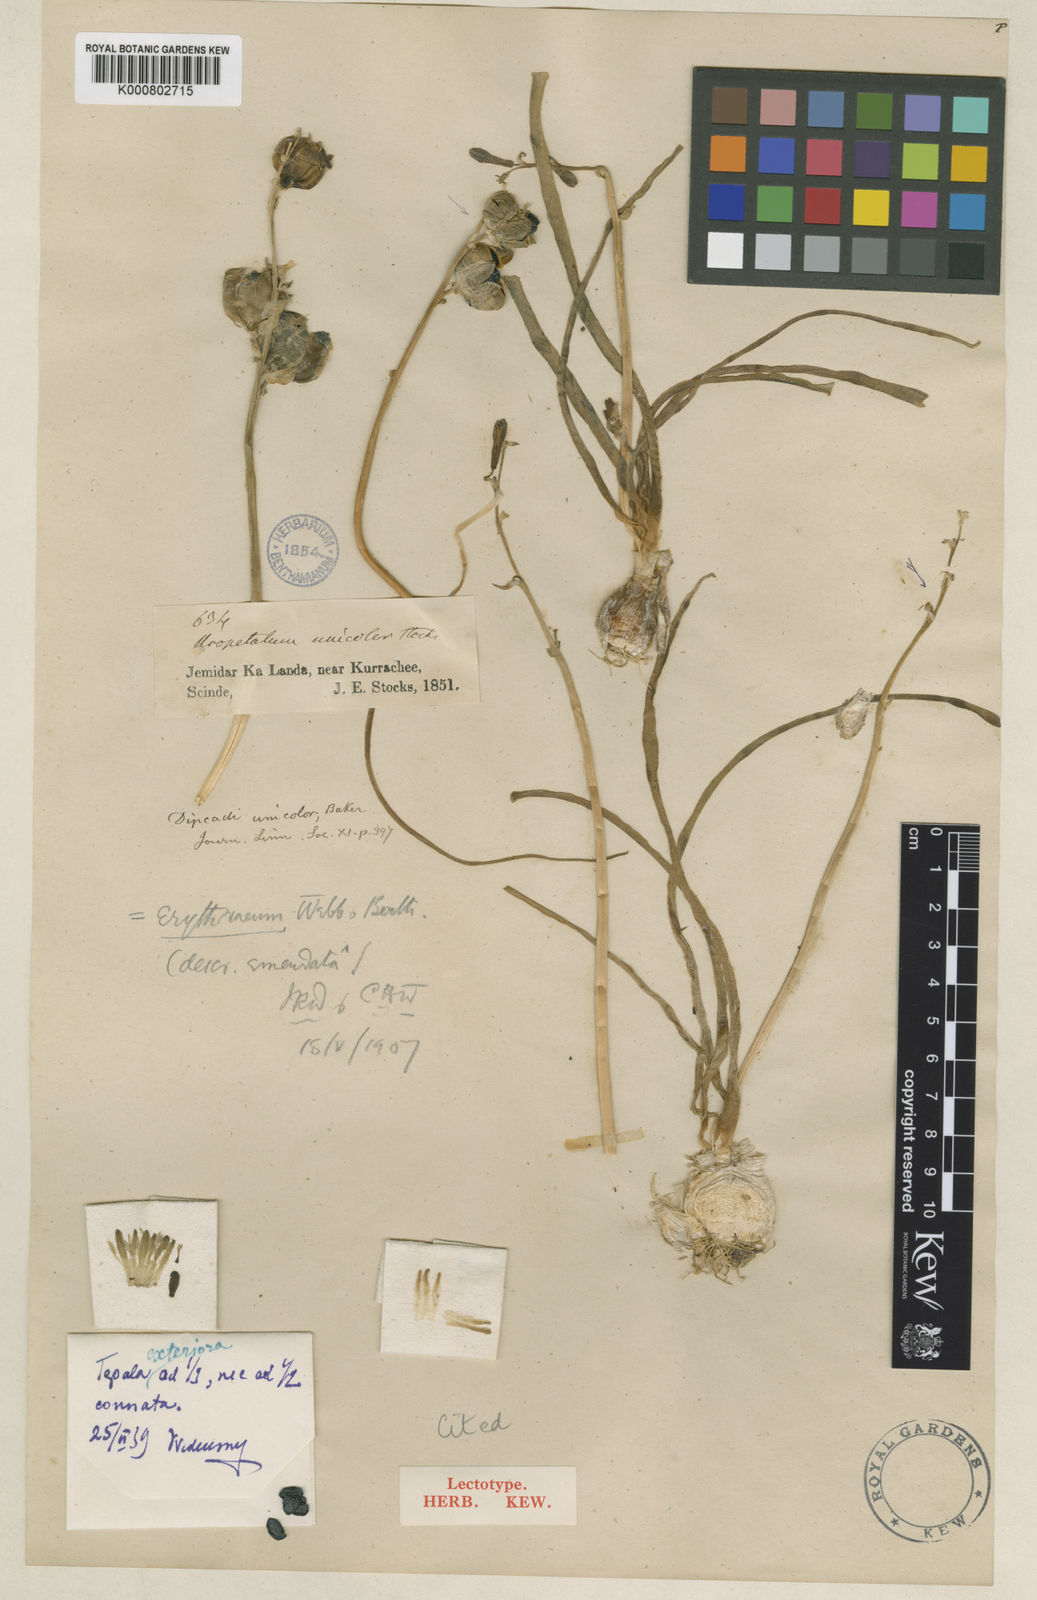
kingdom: Plantae
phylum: Tracheophyta
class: Liliopsida
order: Asparagales
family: Asparagaceae
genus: Dipcadi
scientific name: Dipcadi erythraeum
